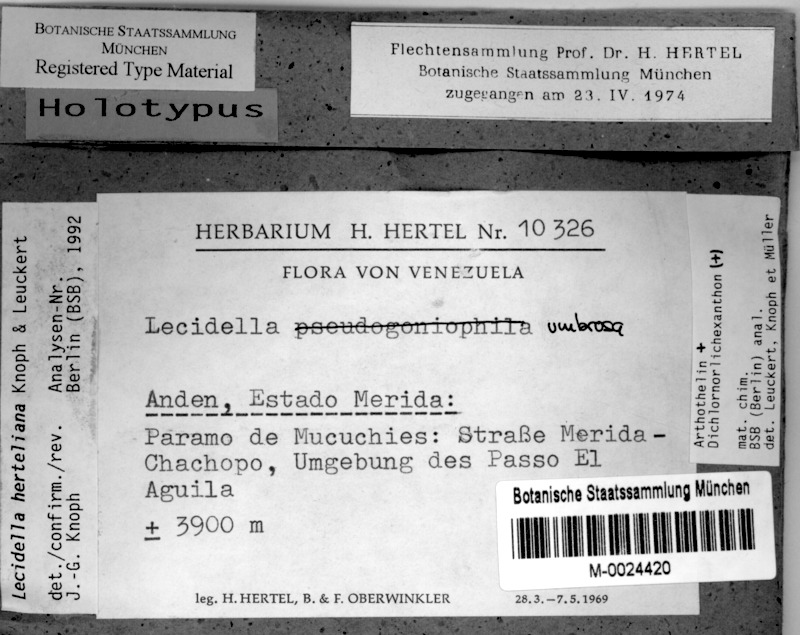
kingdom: Fungi
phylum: Ascomycota
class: Lecanoromycetes
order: Lecanorales
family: Lecanoraceae
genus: Lecidella
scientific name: Lecidella
